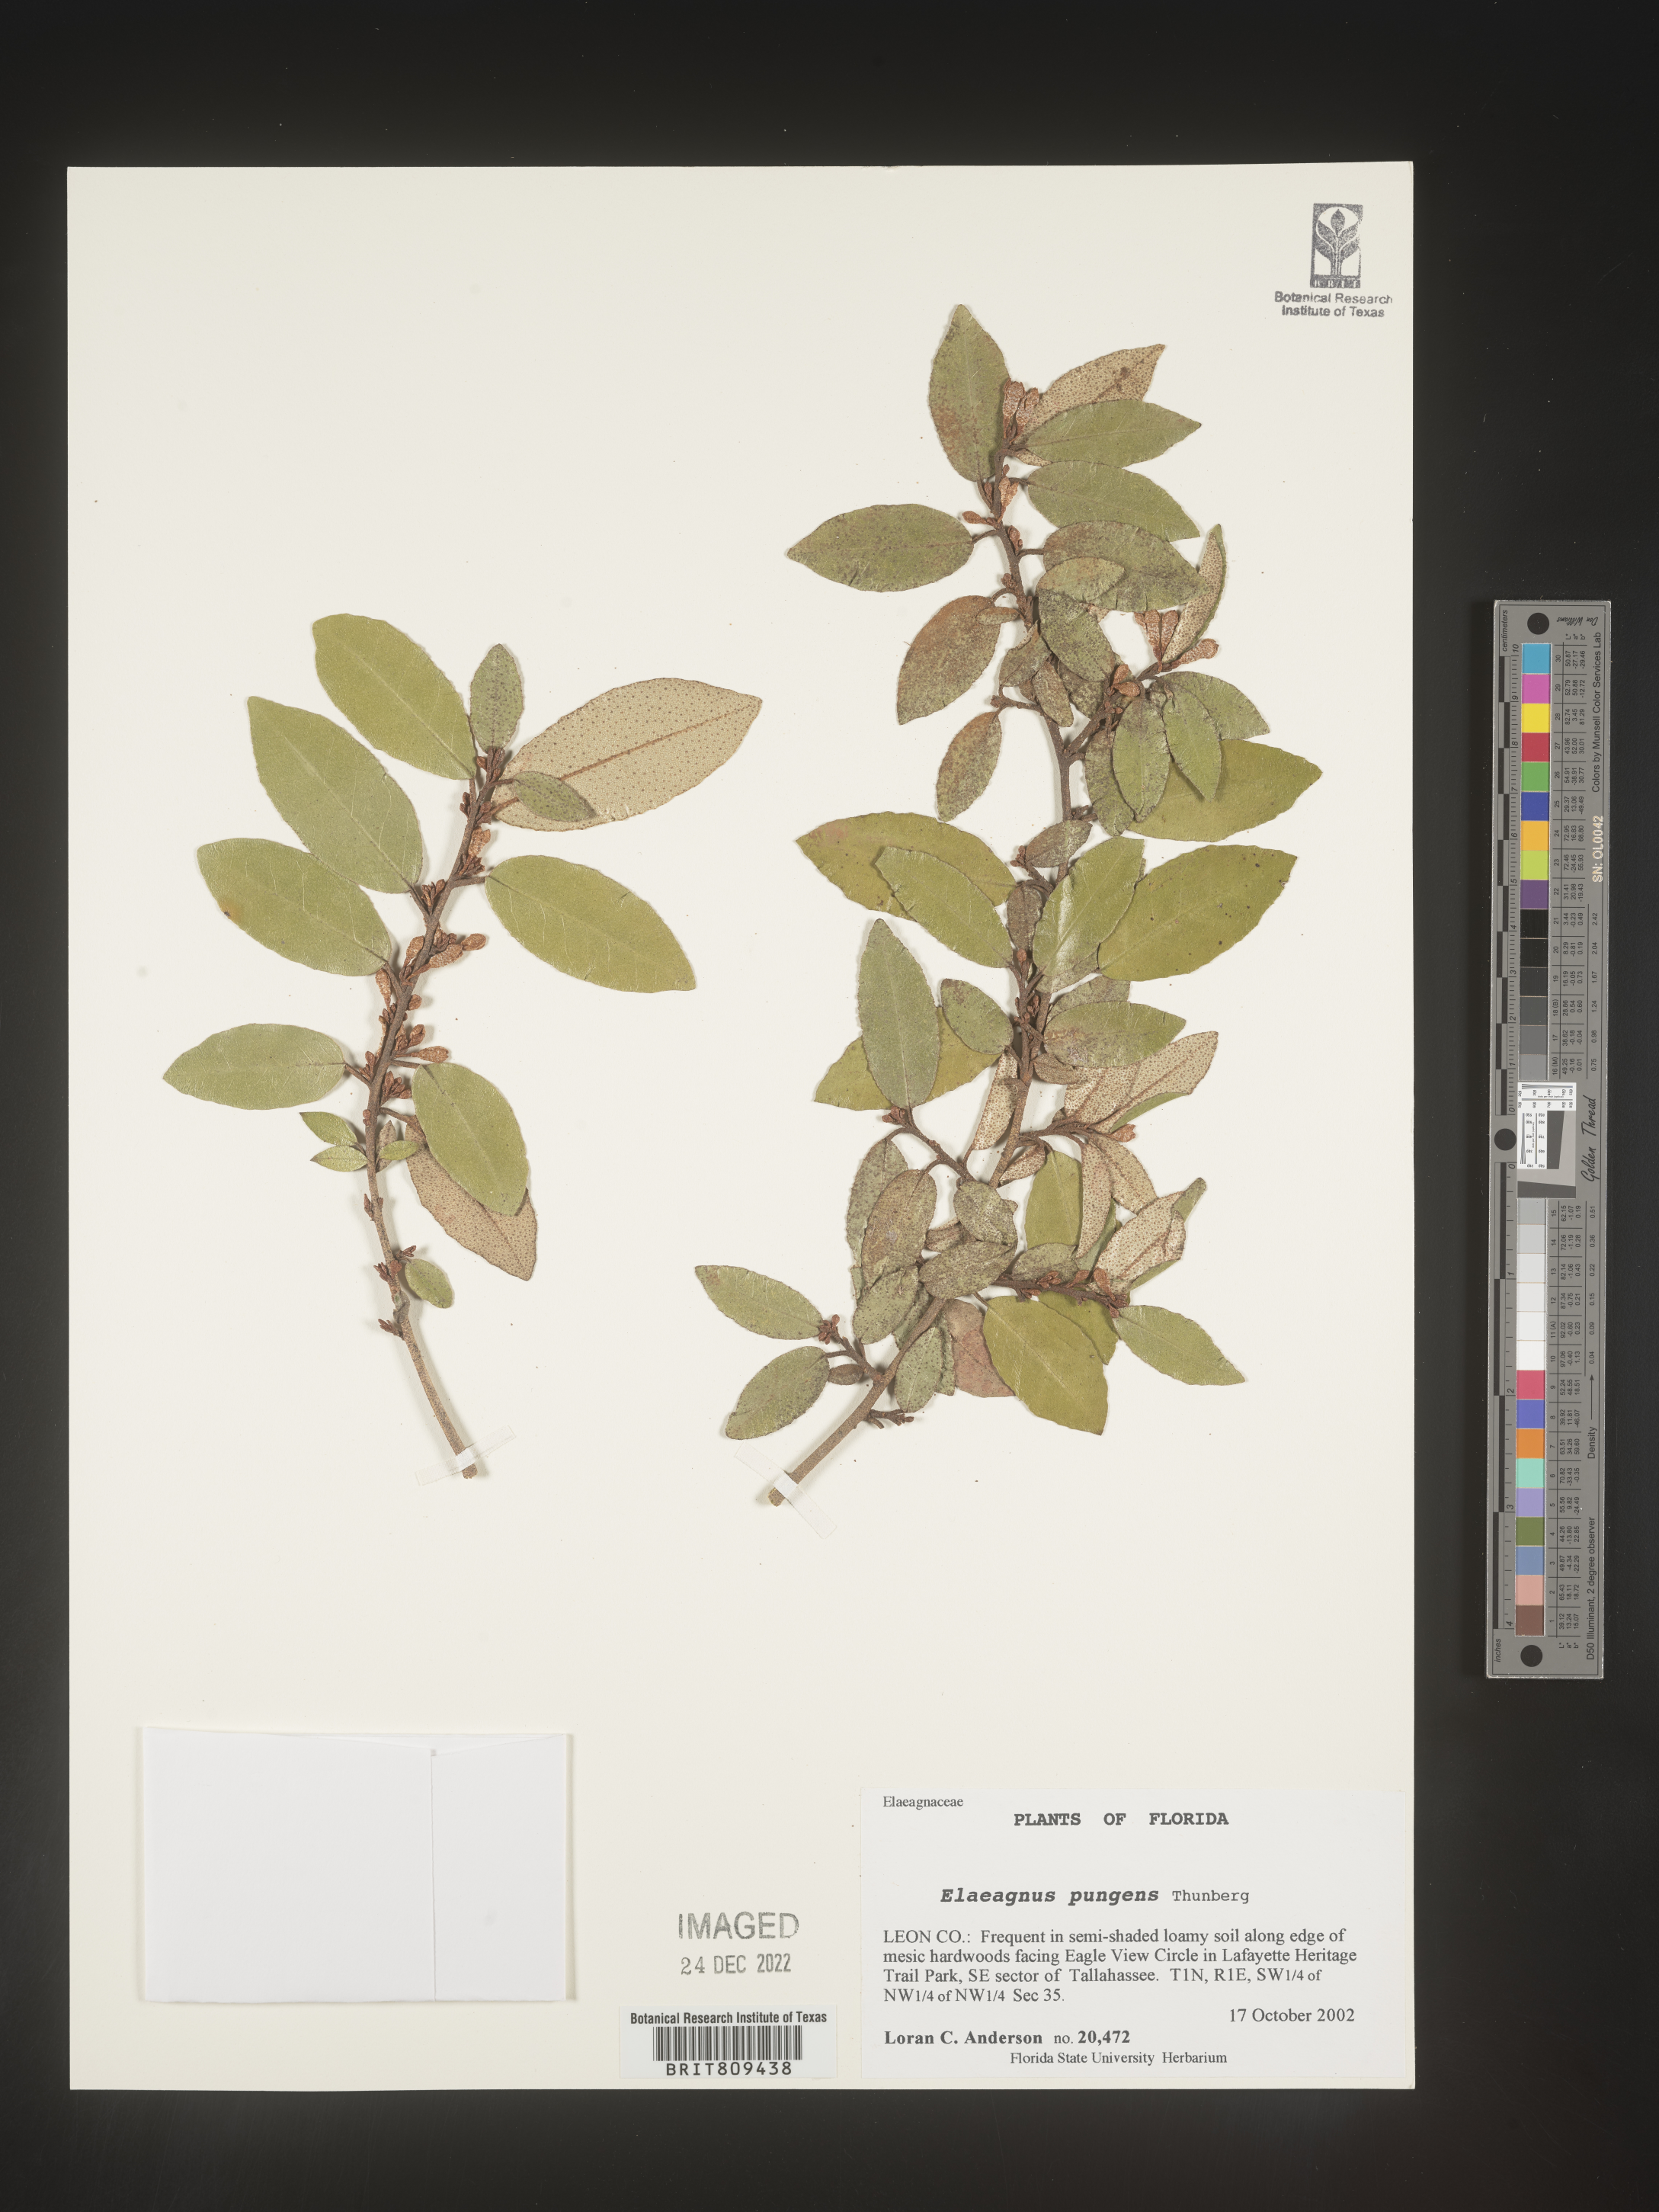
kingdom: Plantae
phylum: Tracheophyta
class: Magnoliopsida
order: Rosales
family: Elaeagnaceae
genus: Elaeagnus
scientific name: Elaeagnus
